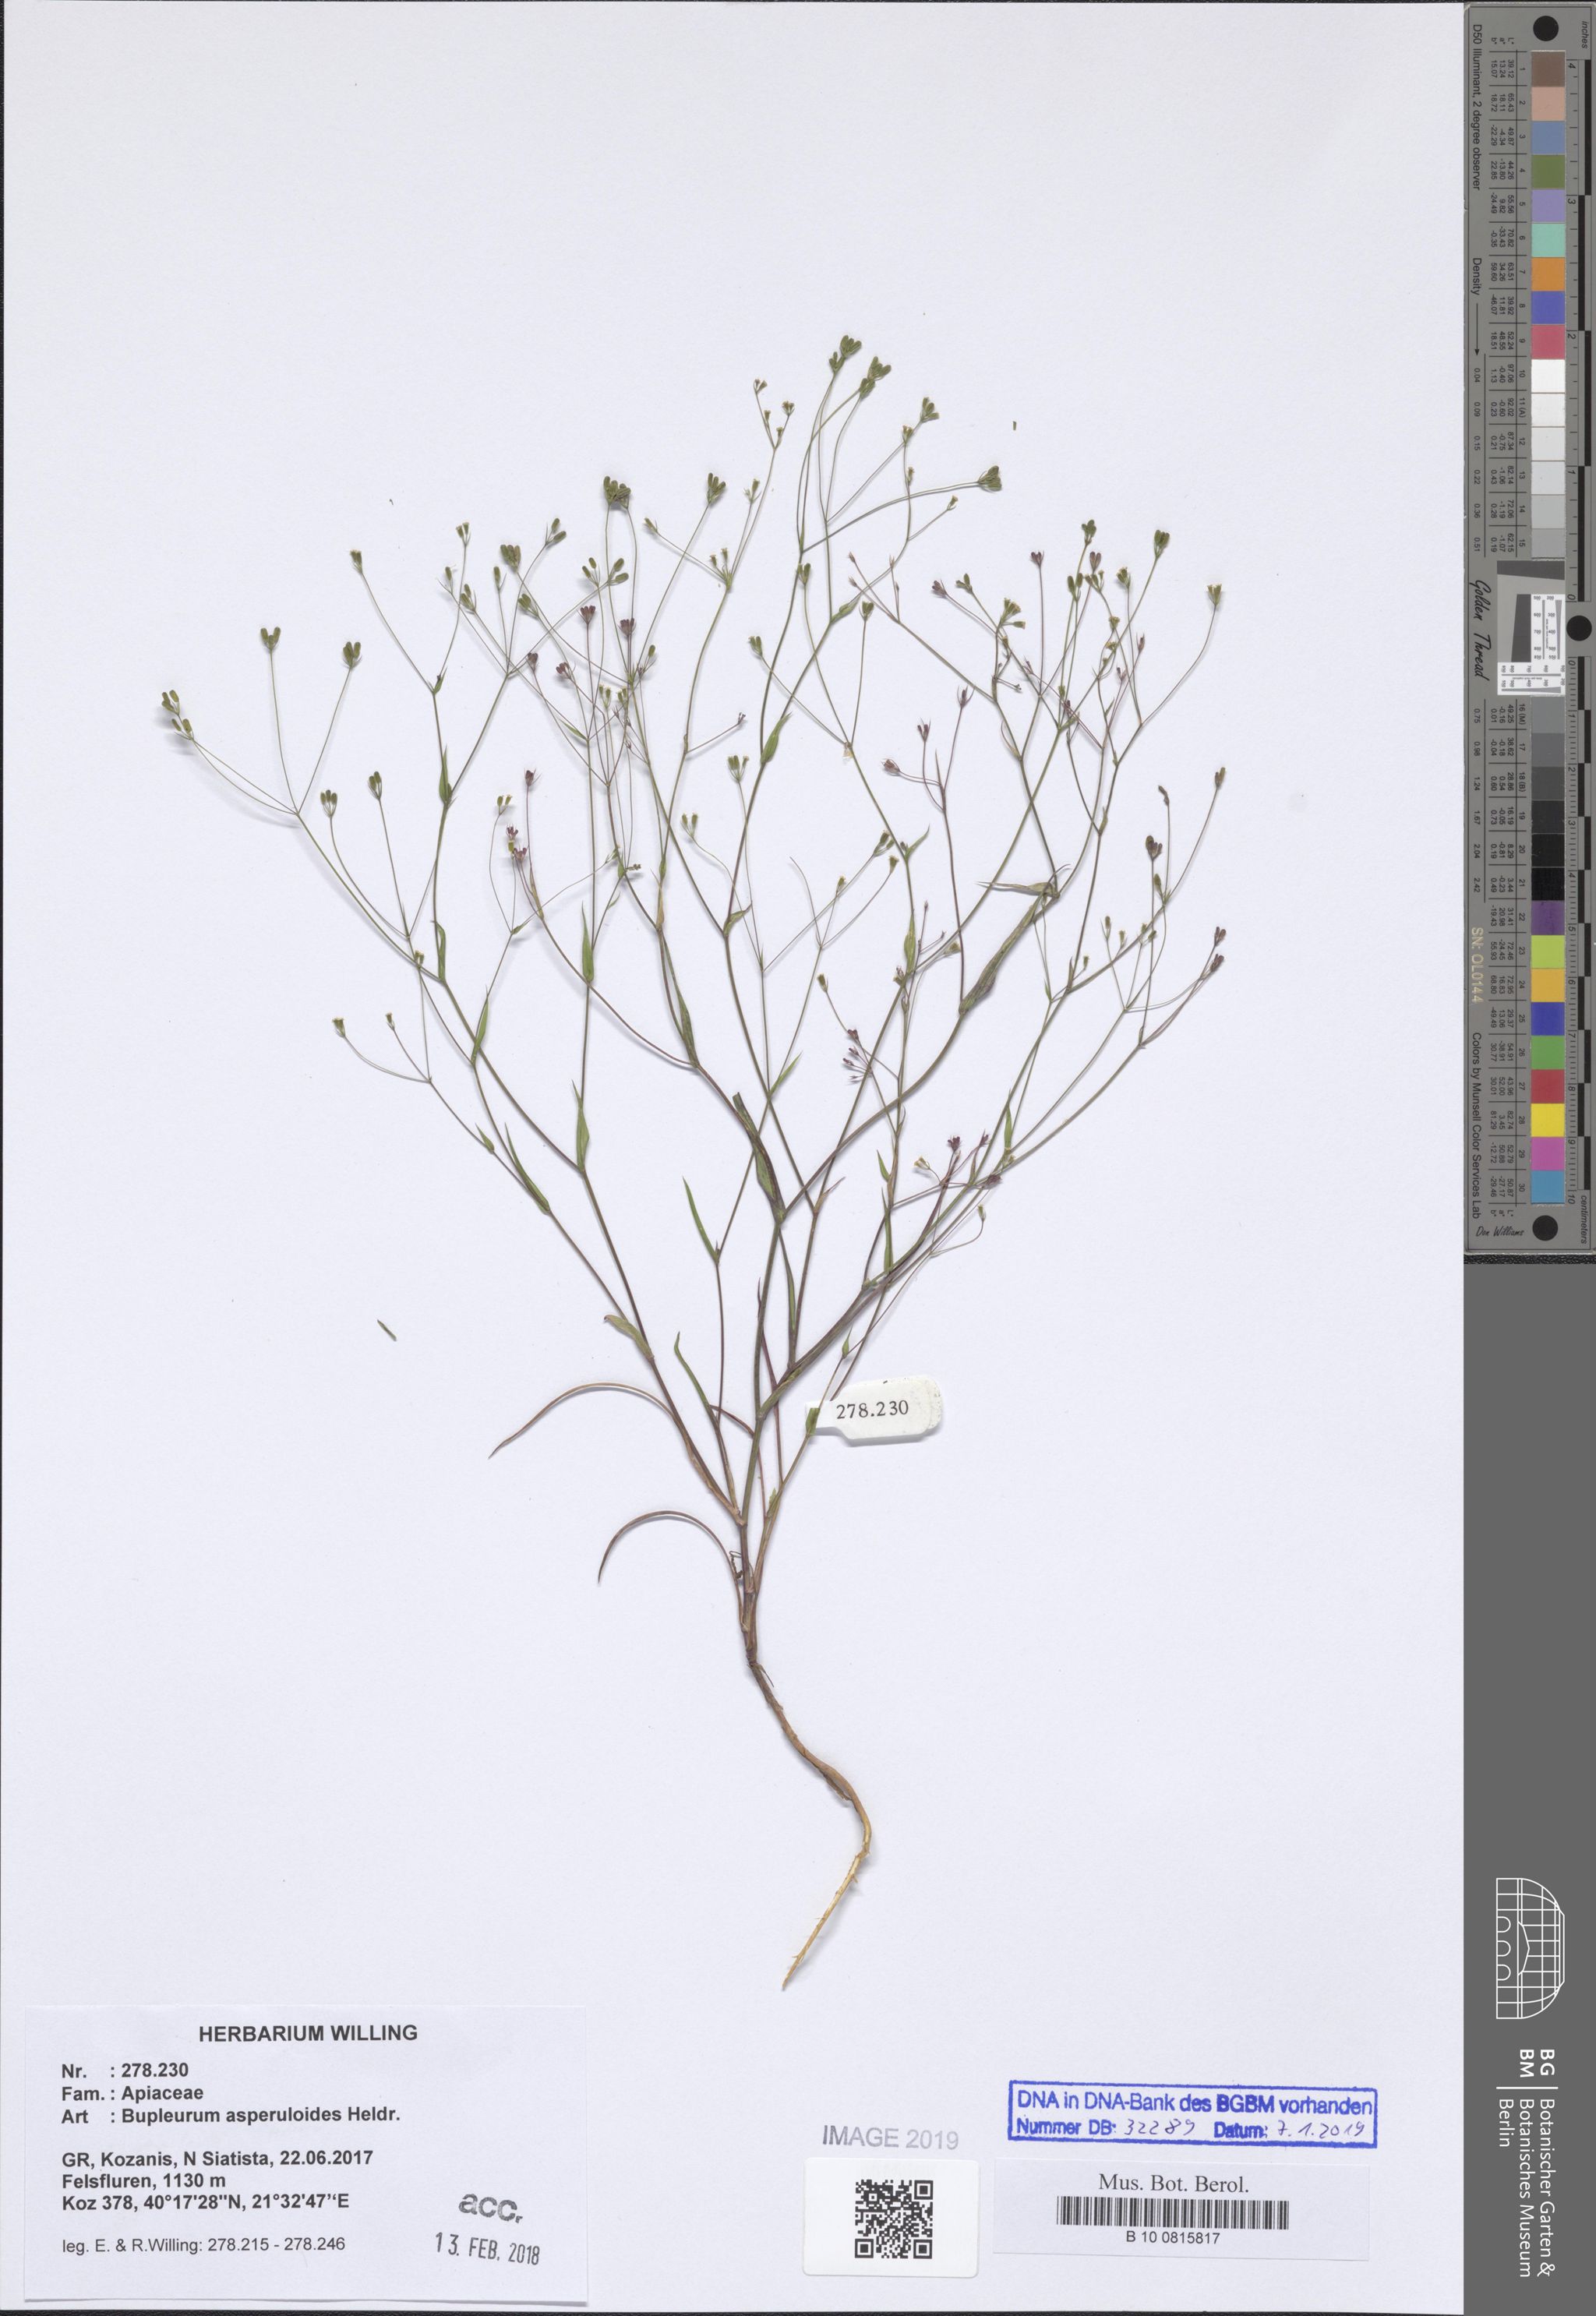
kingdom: Plantae
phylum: Tracheophyta
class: Magnoliopsida
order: Apiales
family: Apiaceae
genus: Bupleurum
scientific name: Bupleurum asperuloides
